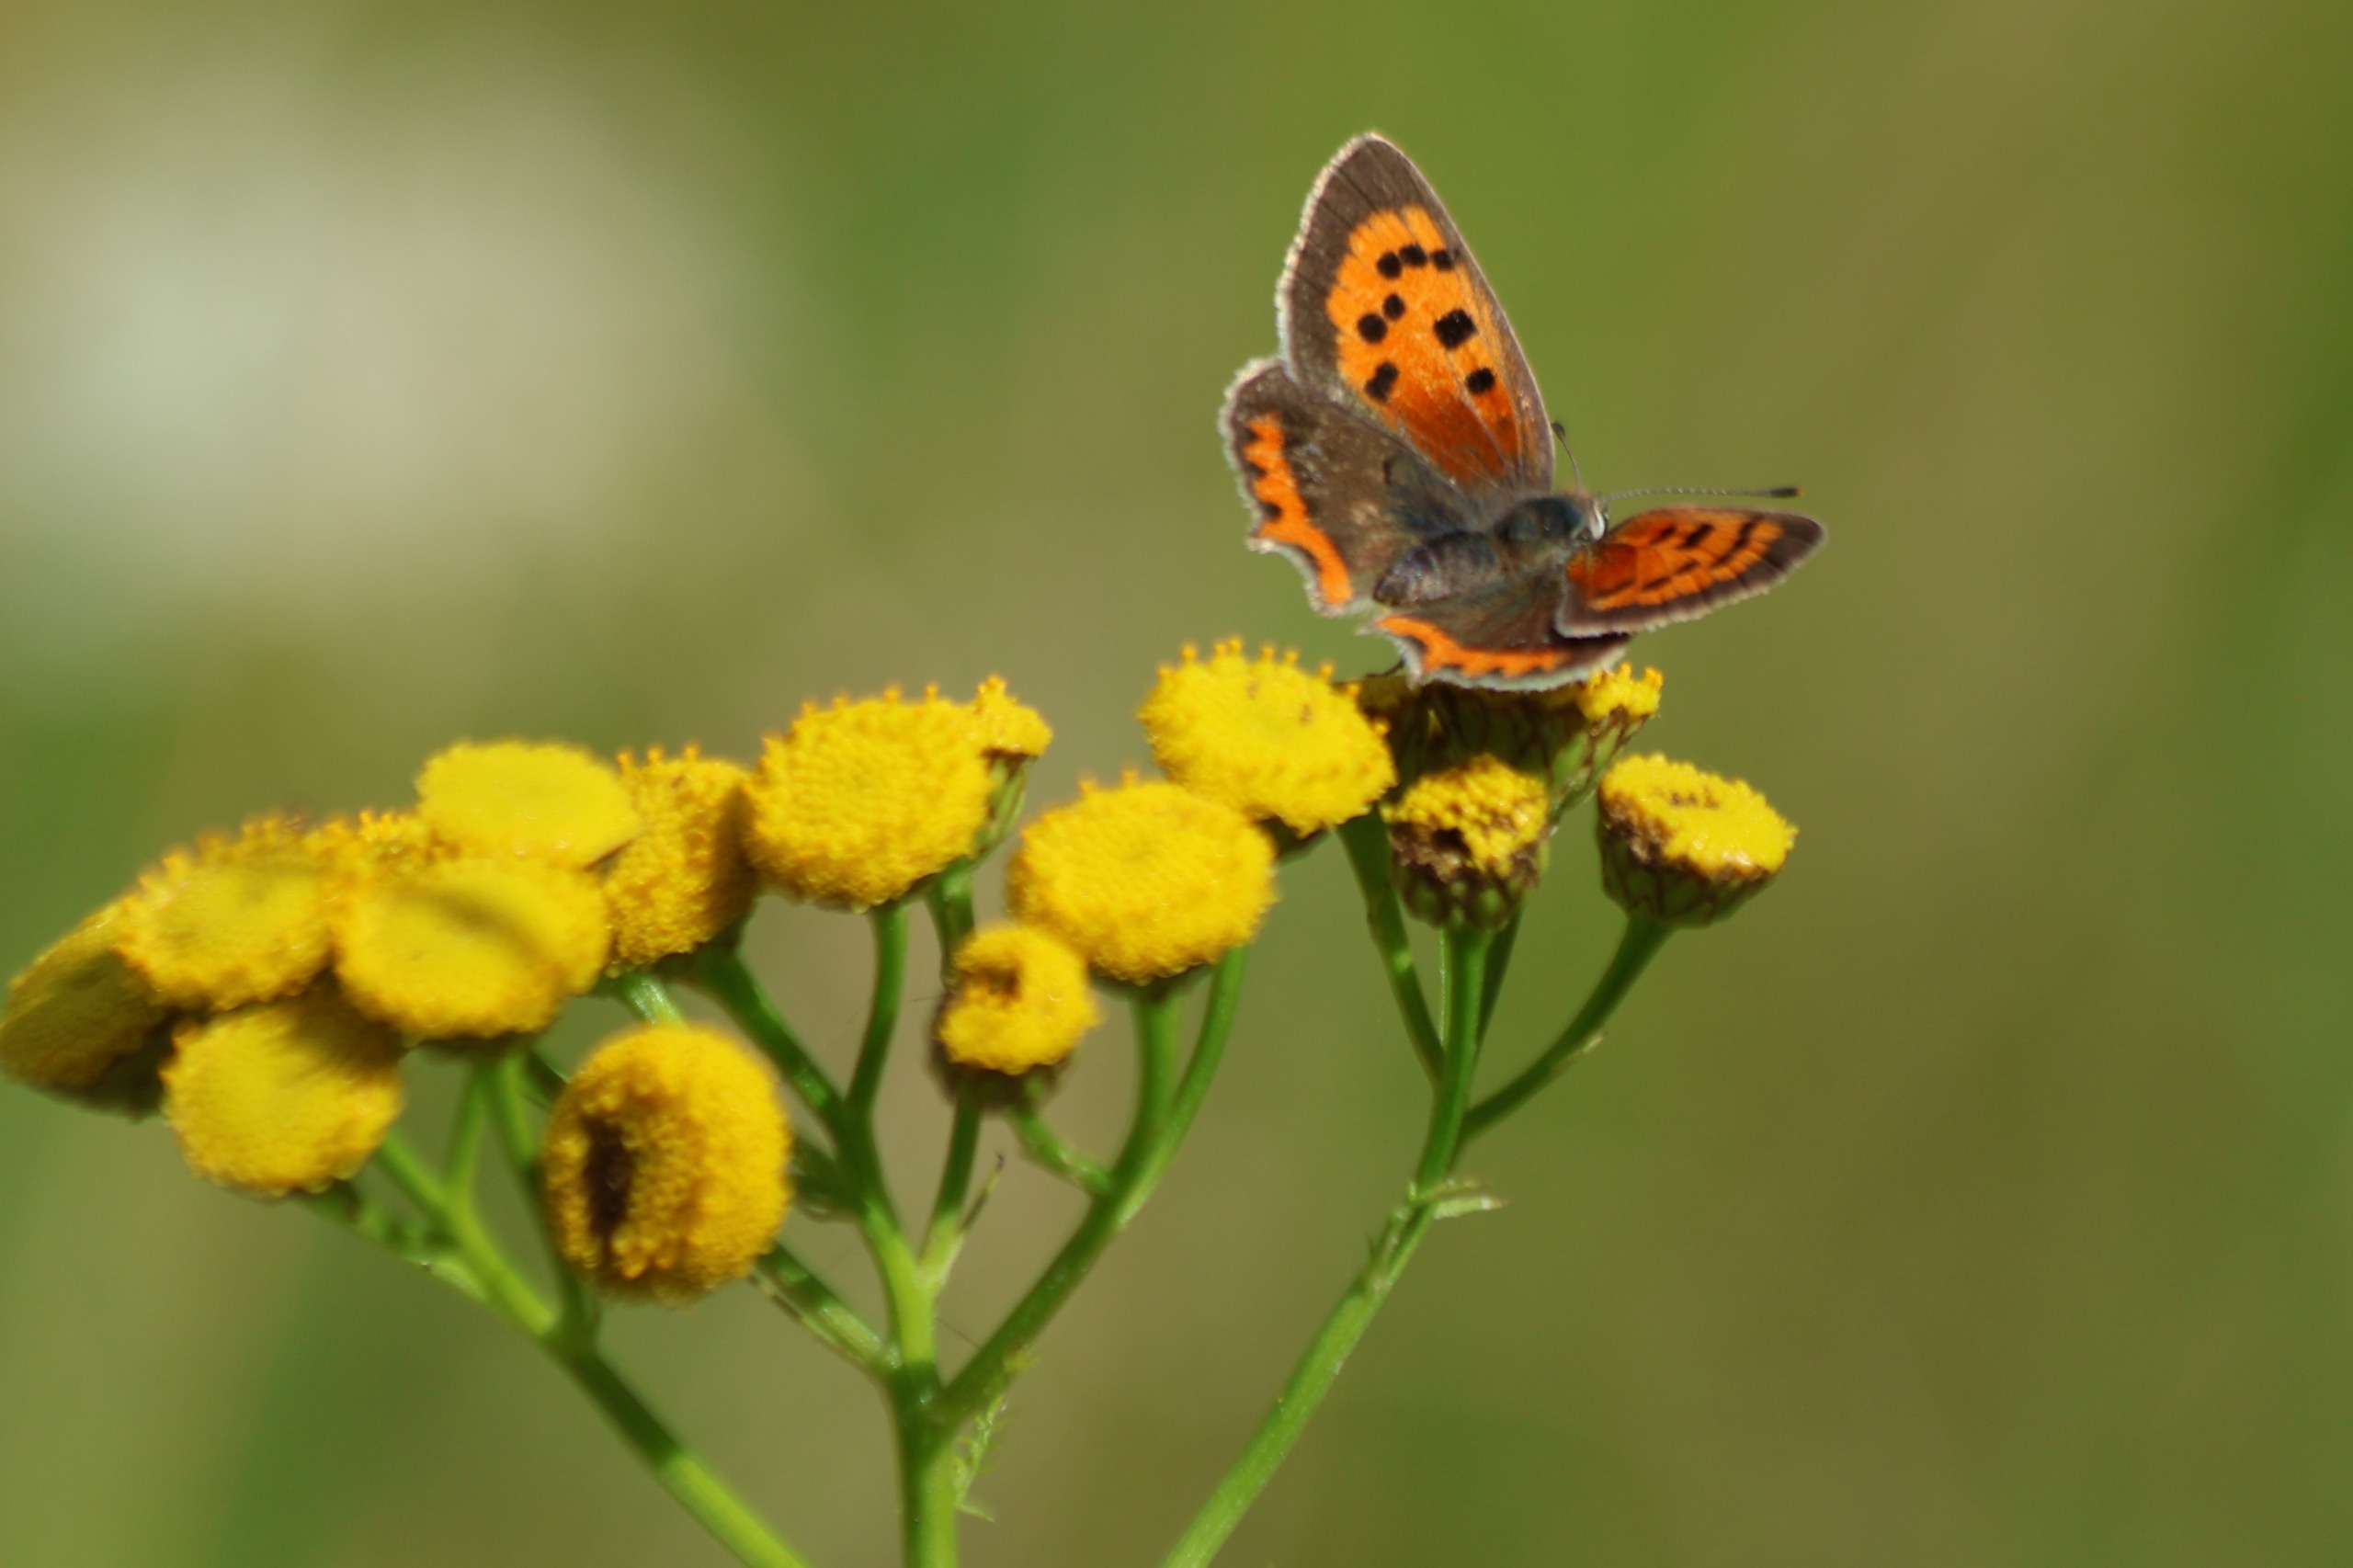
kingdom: Animalia
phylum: Arthropoda
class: Insecta
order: Lepidoptera
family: Lycaenidae
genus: Lycaena
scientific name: Lycaena phlaeas
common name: Lille ildfugl
